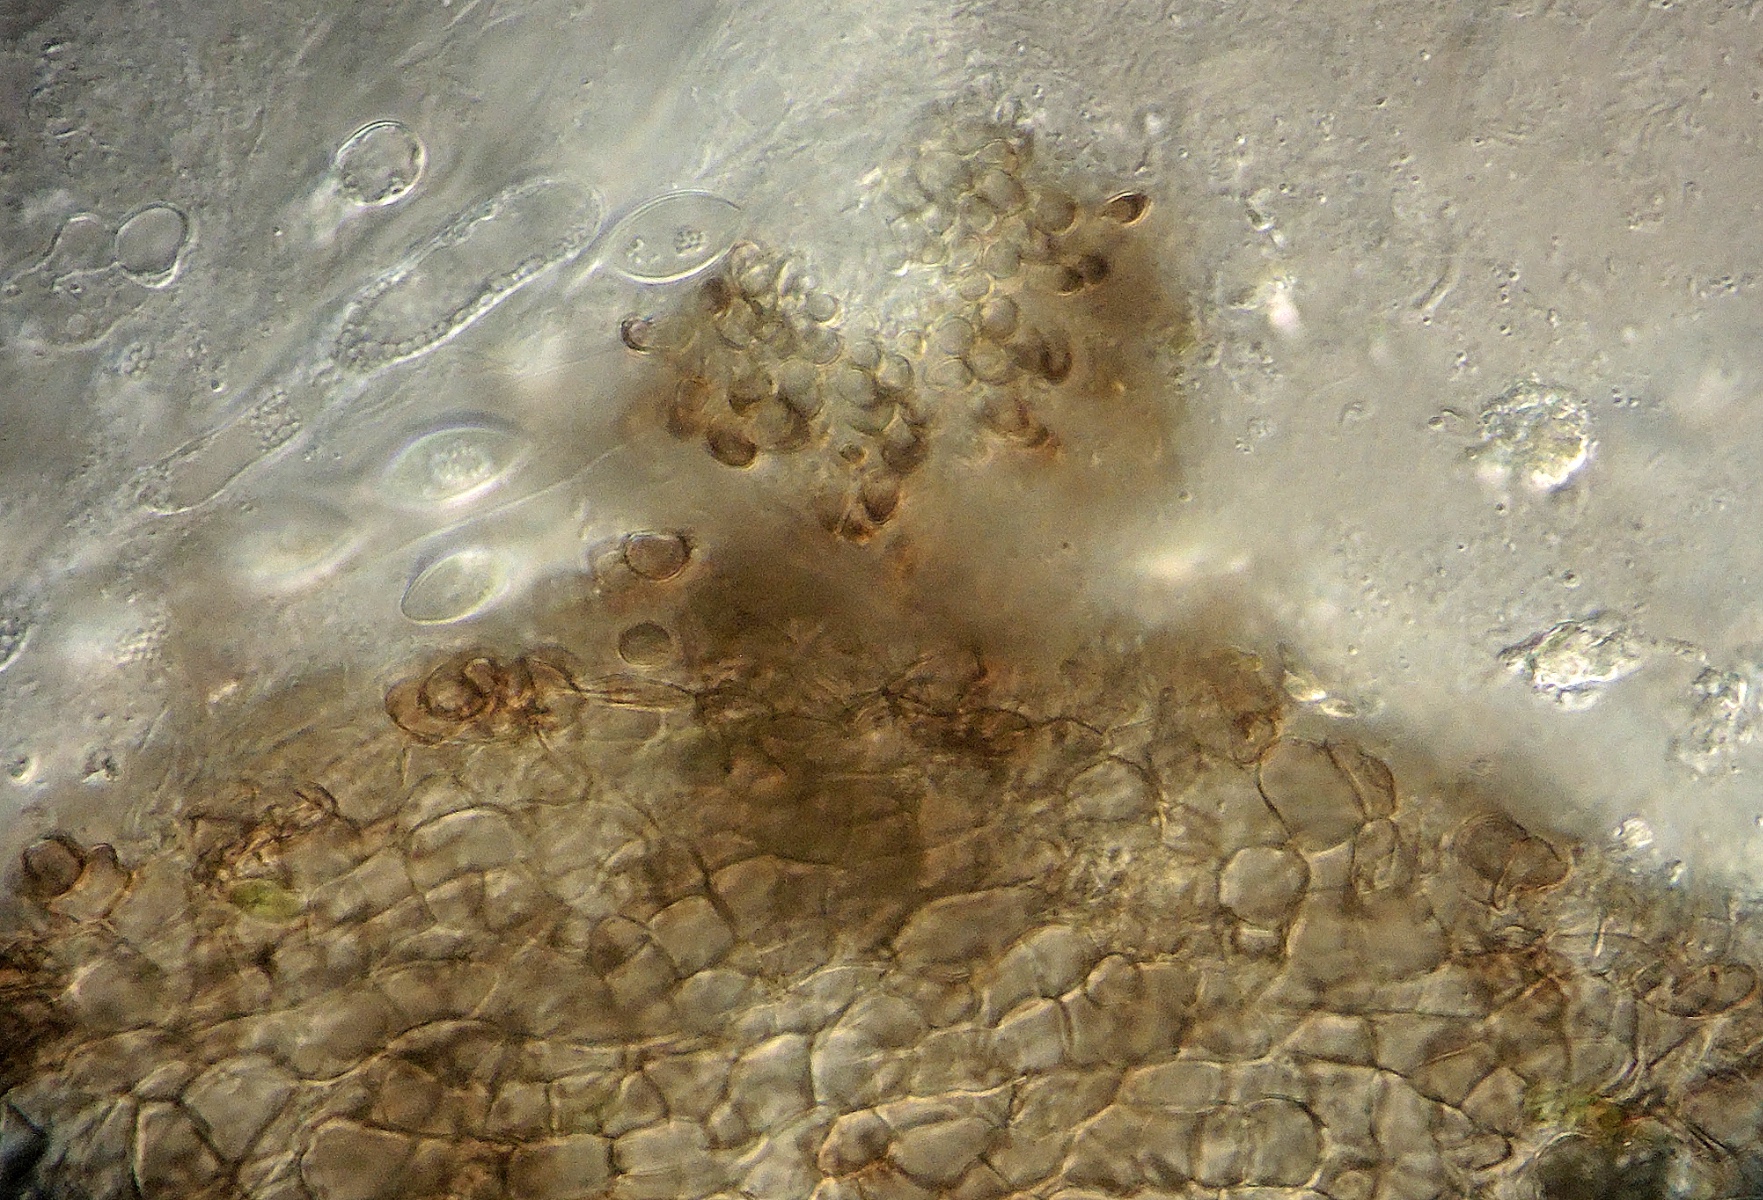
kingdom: Fungi
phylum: Ascomycota
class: Sordariomycetes
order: Sordariales
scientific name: Sordariales
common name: kernesvampordenen
